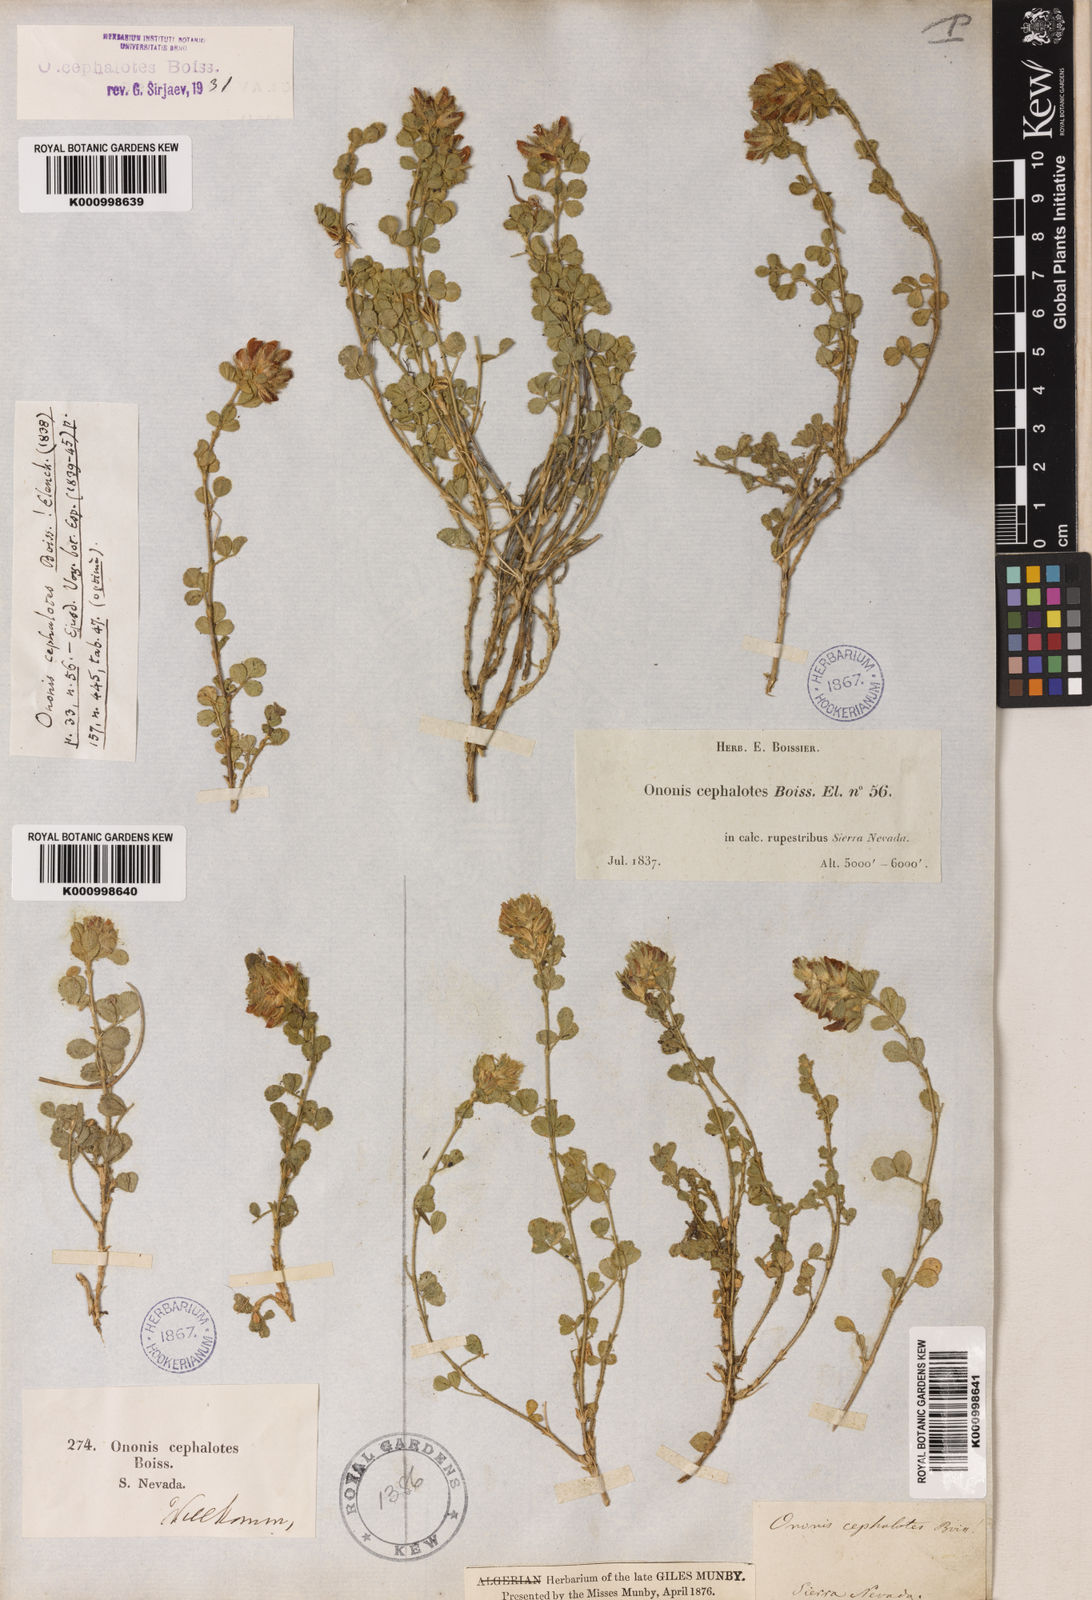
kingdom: Plantae
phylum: Tracheophyta
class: Magnoliopsida
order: Fabales
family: Fabaceae
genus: Ononis
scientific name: Ononis cephalotes
